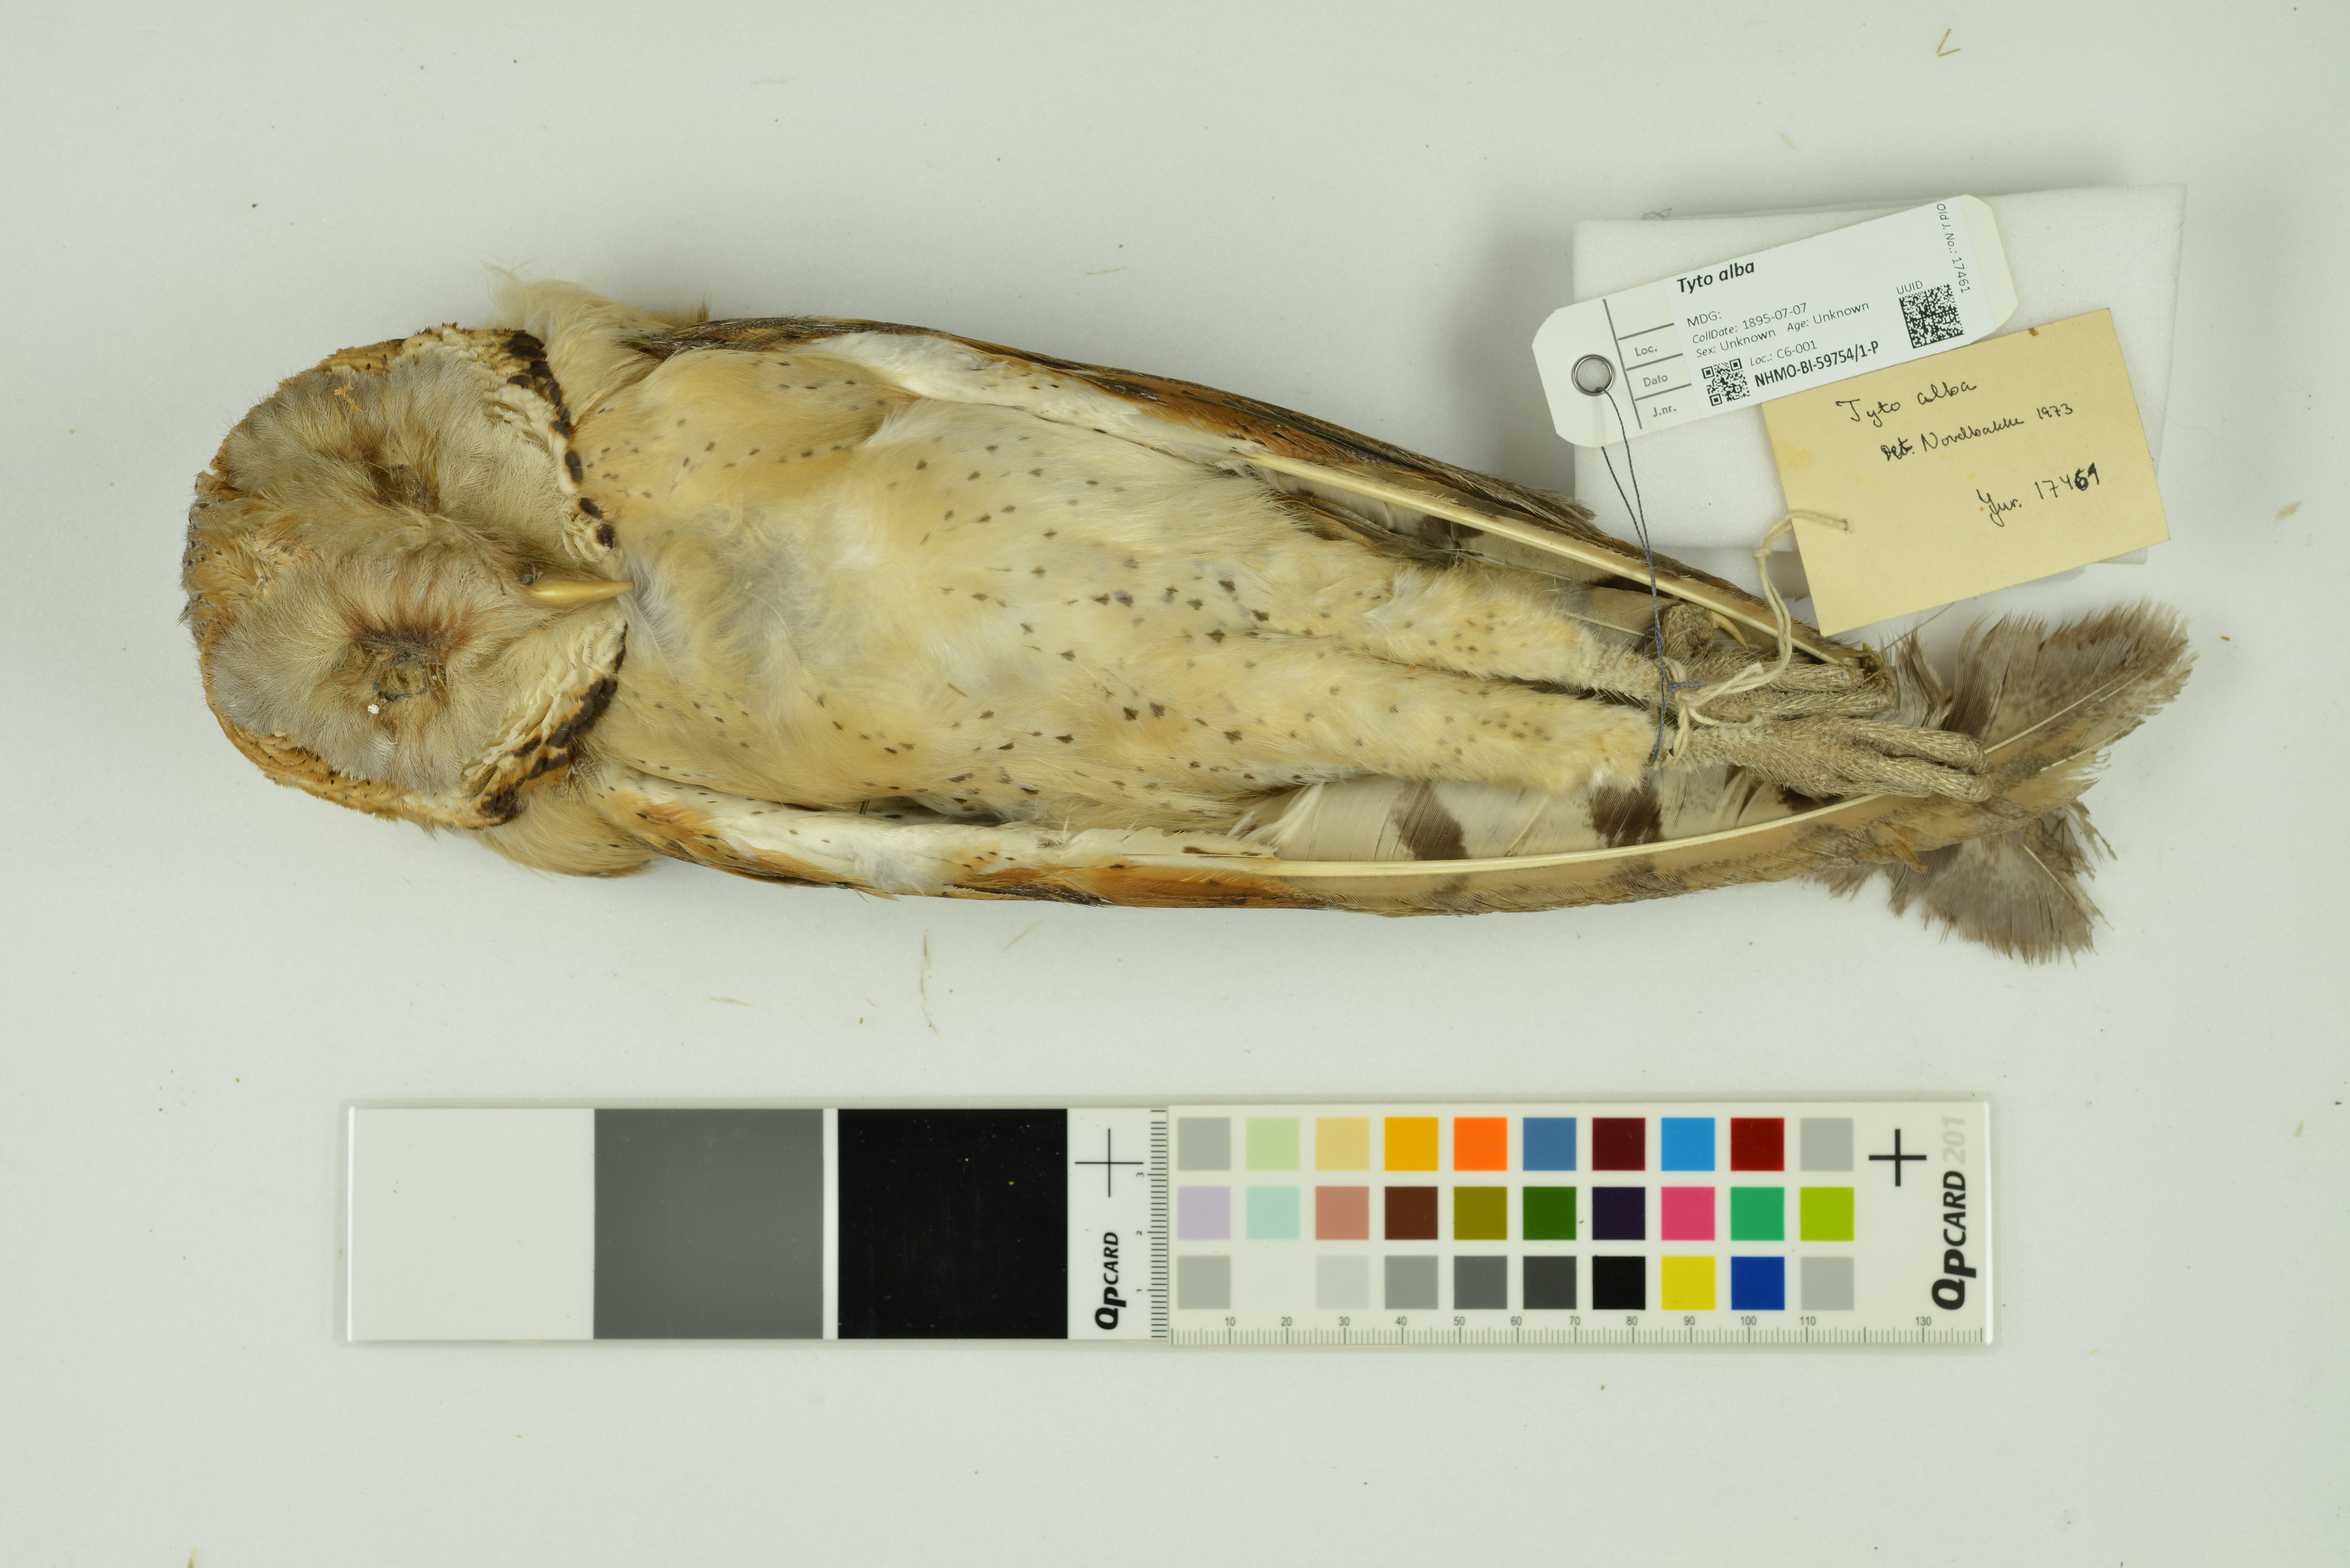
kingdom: Animalia
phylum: Chordata
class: Aves
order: Strigiformes
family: Tytonidae
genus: Tyto
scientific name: Tyto alba
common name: Barn owl
